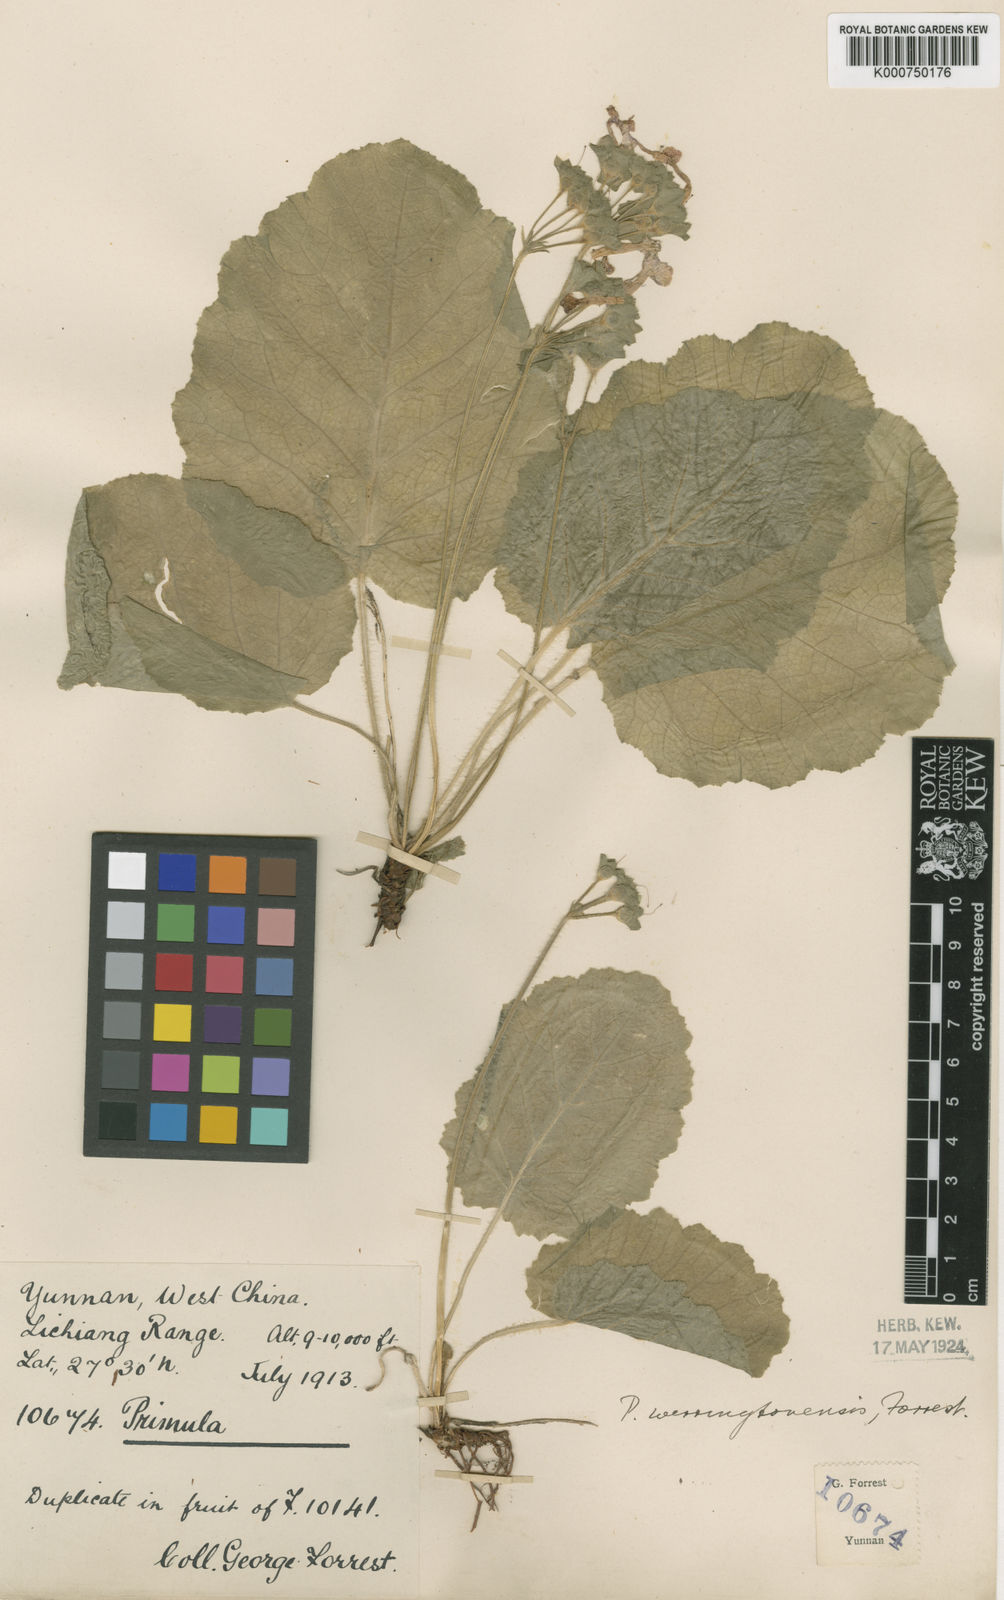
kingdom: Plantae
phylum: Tracheophyta
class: Magnoliopsida
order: Ericales
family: Primulaceae
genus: Primula
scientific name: Primula obconica
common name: German primrose
